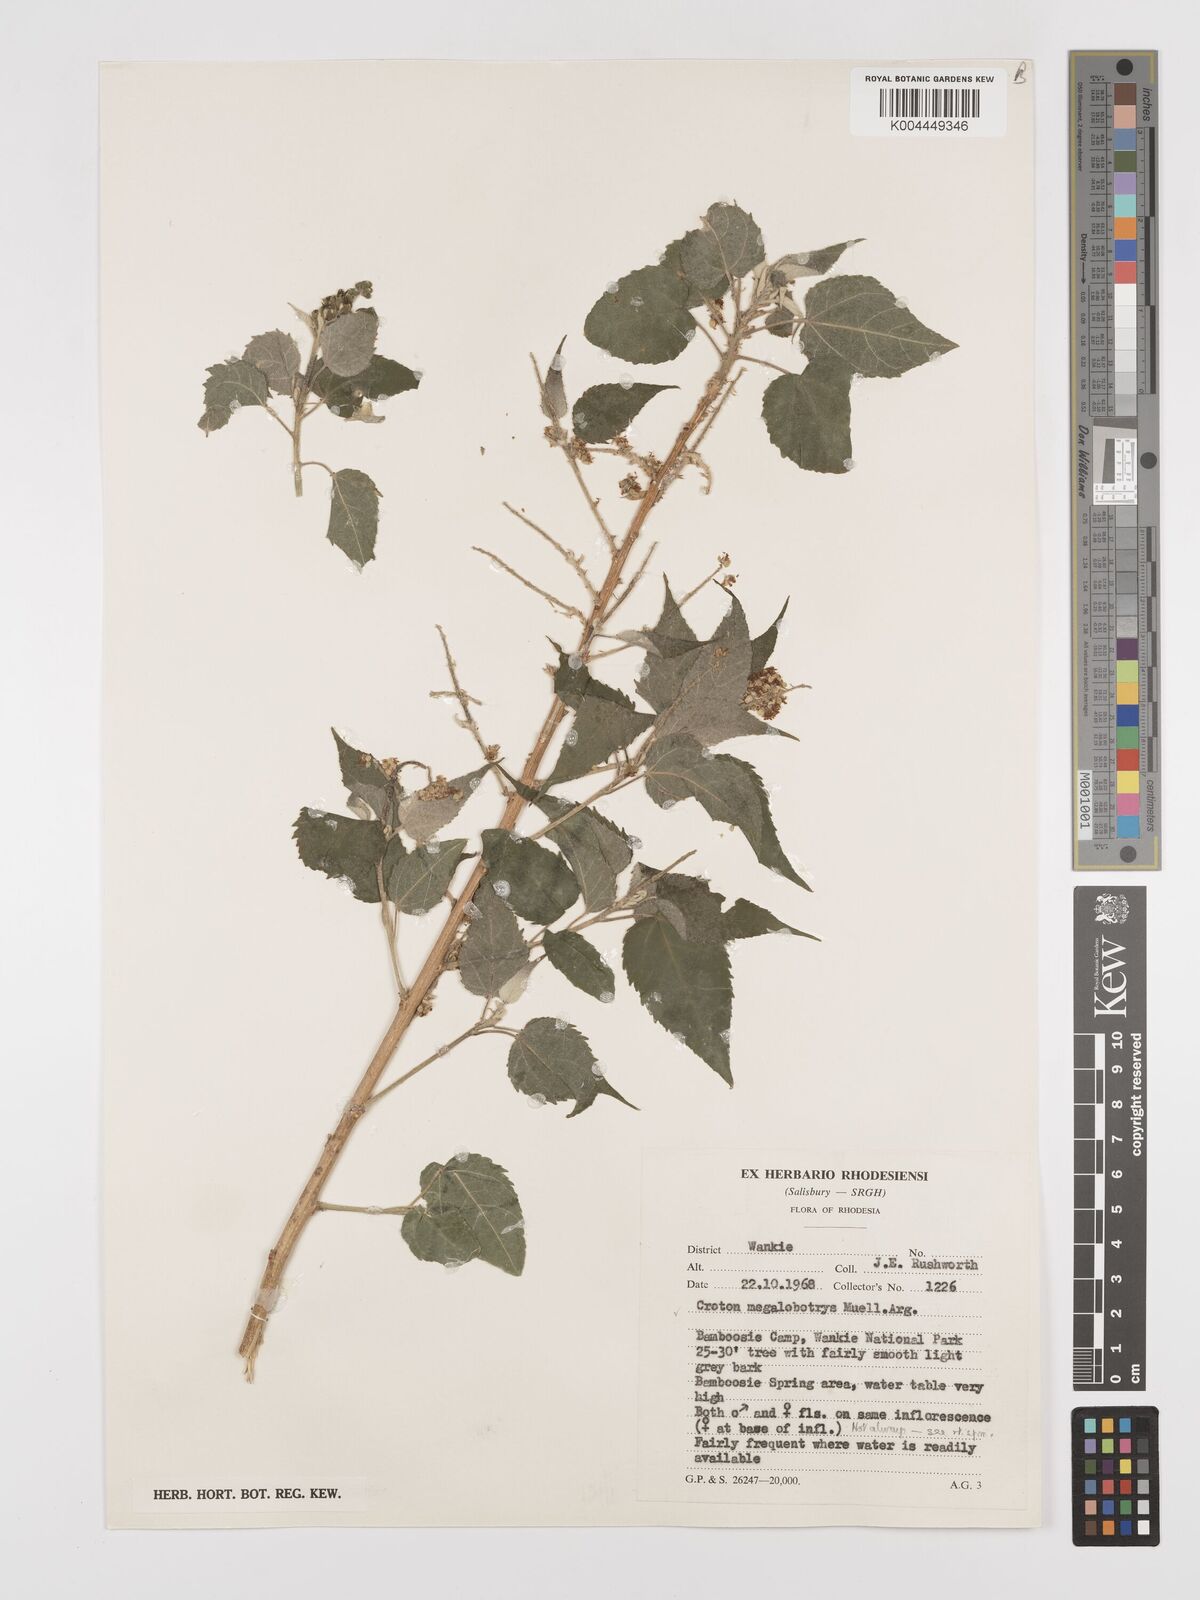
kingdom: Plantae
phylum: Tracheophyta
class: Magnoliopsida
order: Malpighiales
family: Euphorbiaceae
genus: Croton
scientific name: Croton megalobotrys
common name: Large fever berry
